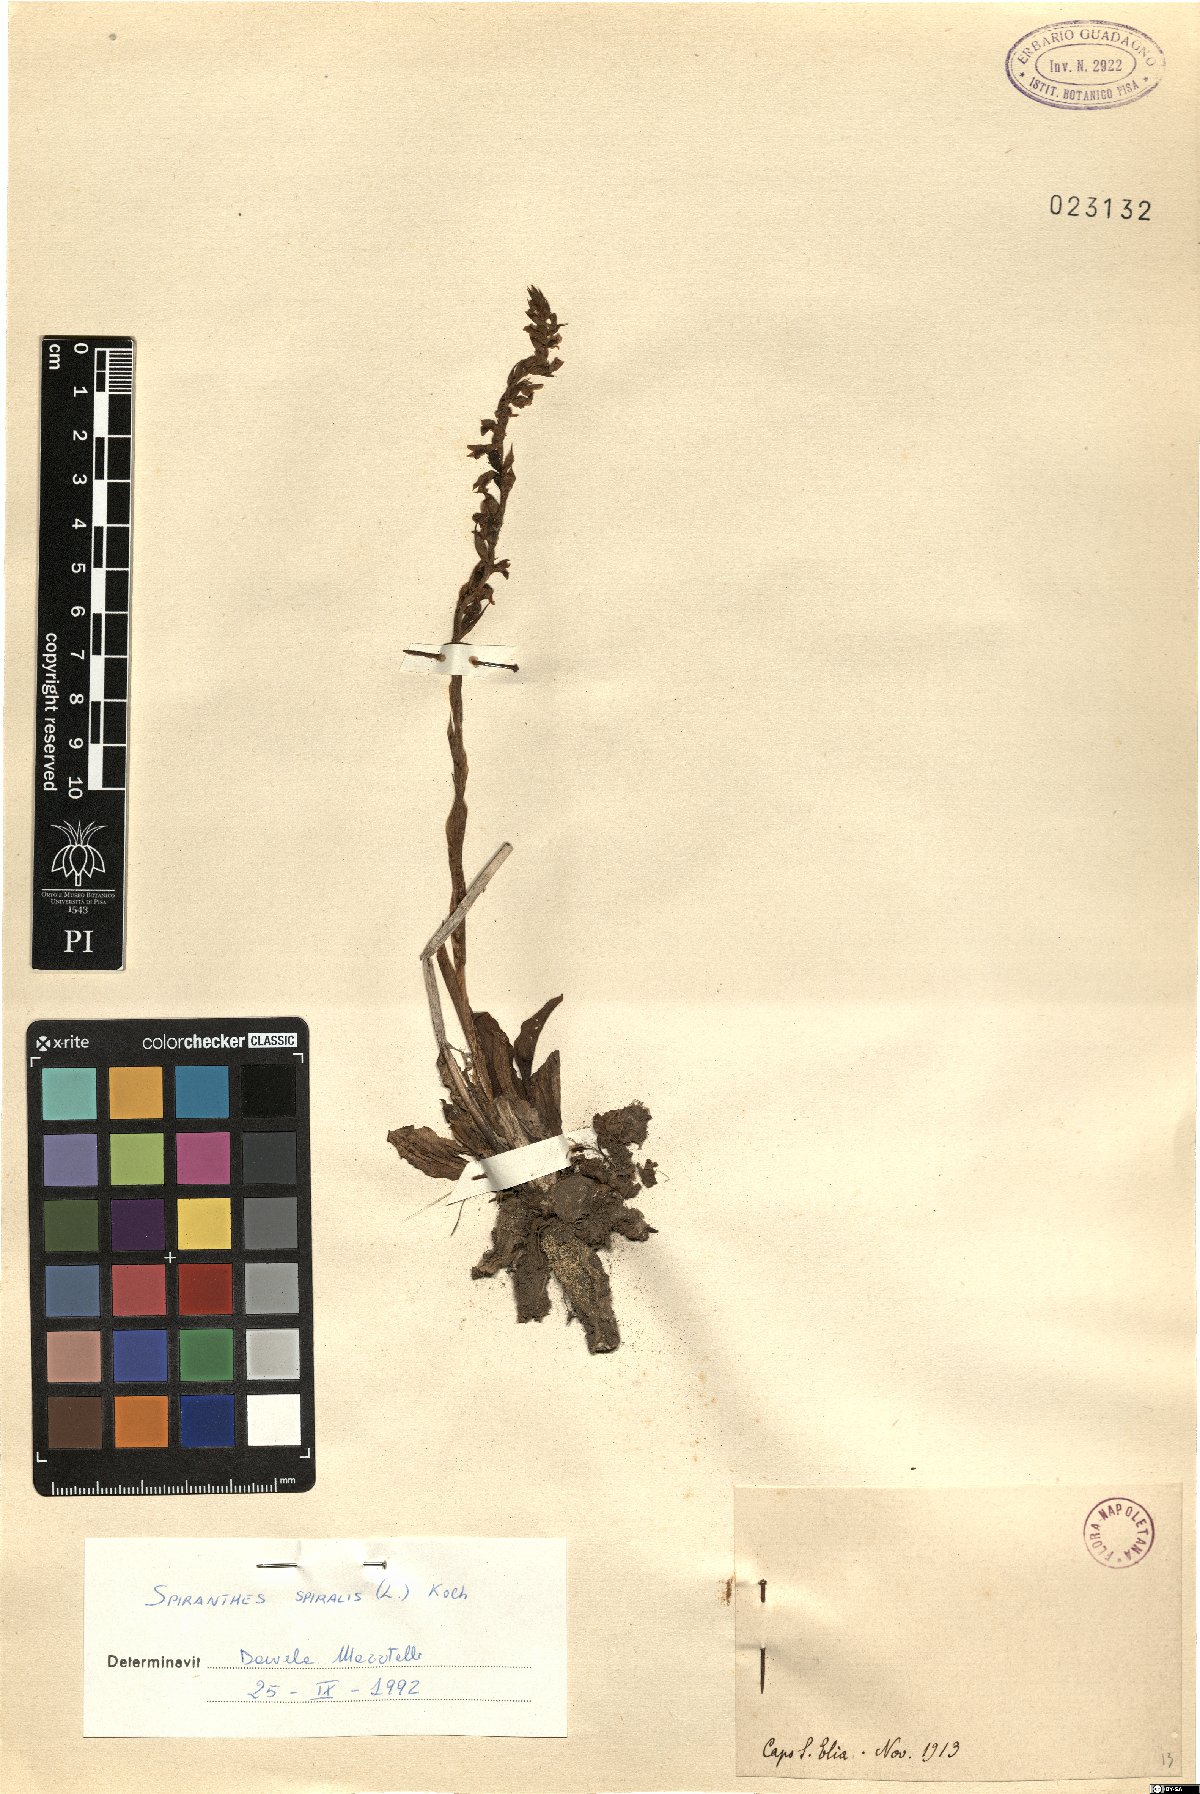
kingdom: Plantae
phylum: Tracheophyta
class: Liliopsida
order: Asparagales
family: Orchidaceae
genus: Spiranthes
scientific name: Spiranthes spiralis
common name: Autumn lady's-tresses
